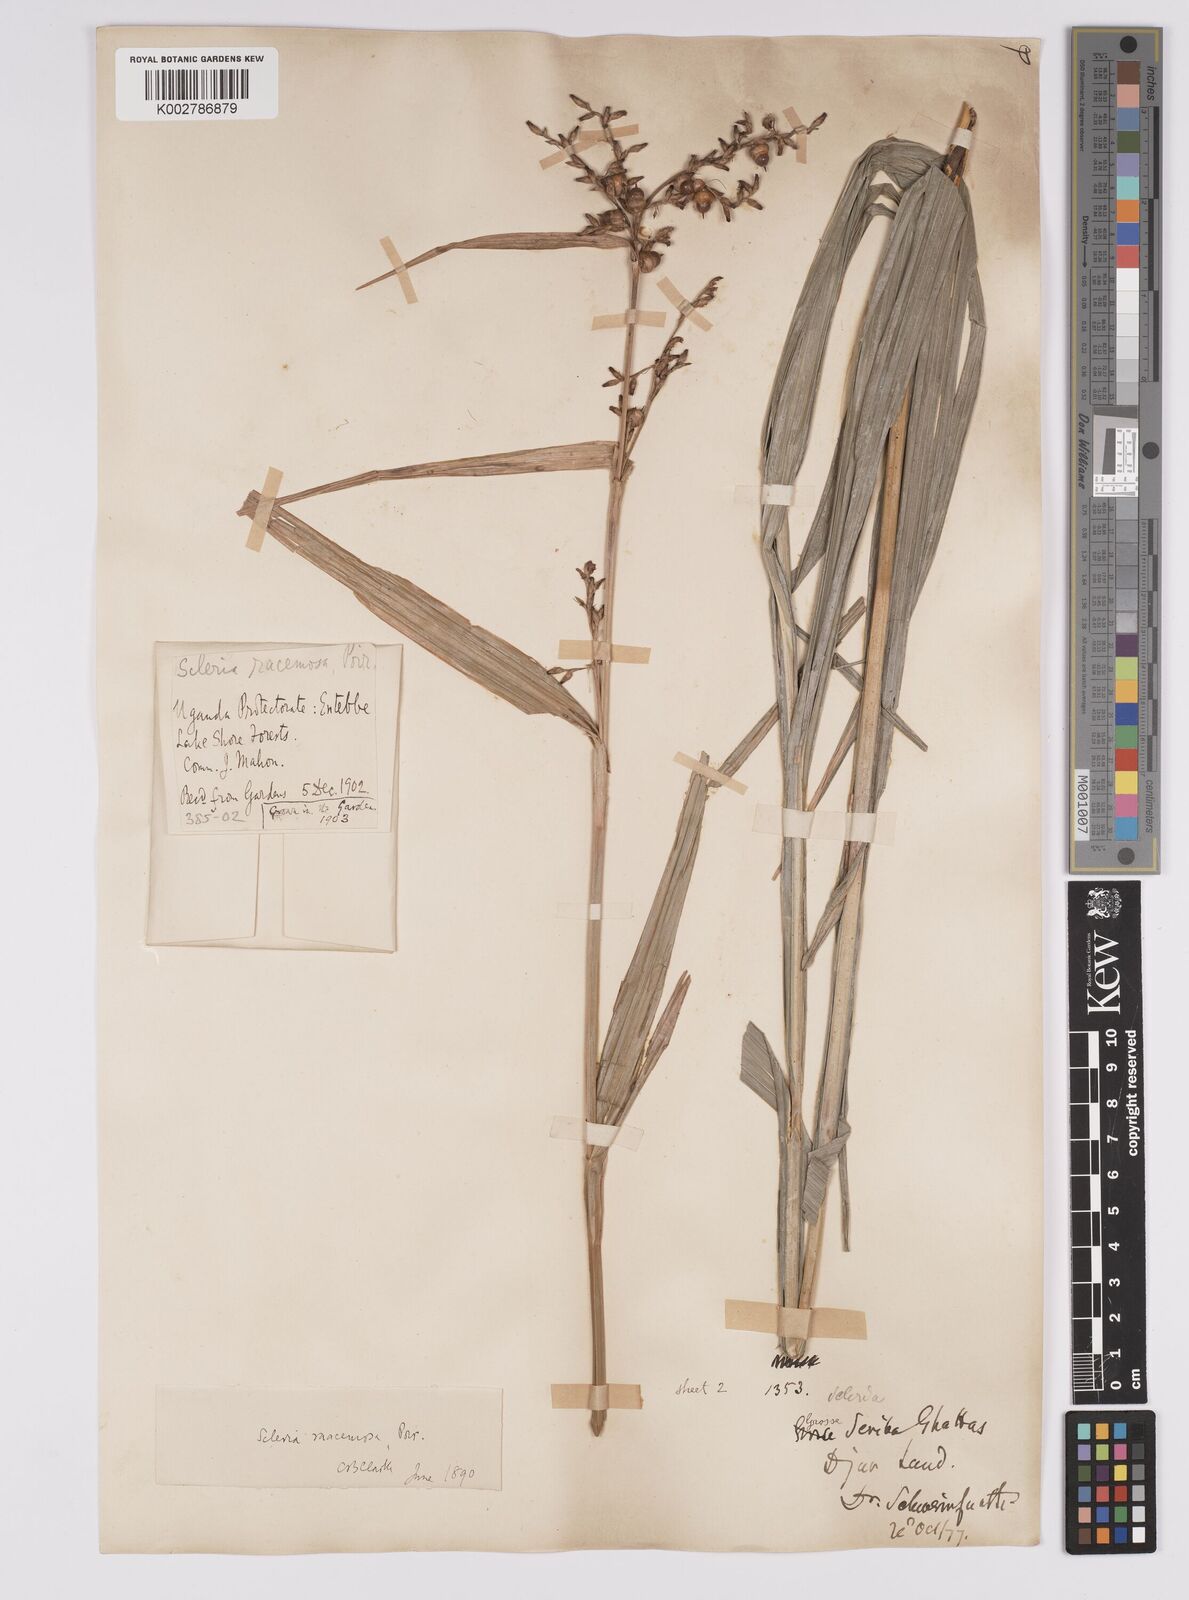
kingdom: Plantae
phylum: Tracheophyta
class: Liliopsida
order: Poales
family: Cyperaceae
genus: Scleria
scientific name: Scleria racemosa
